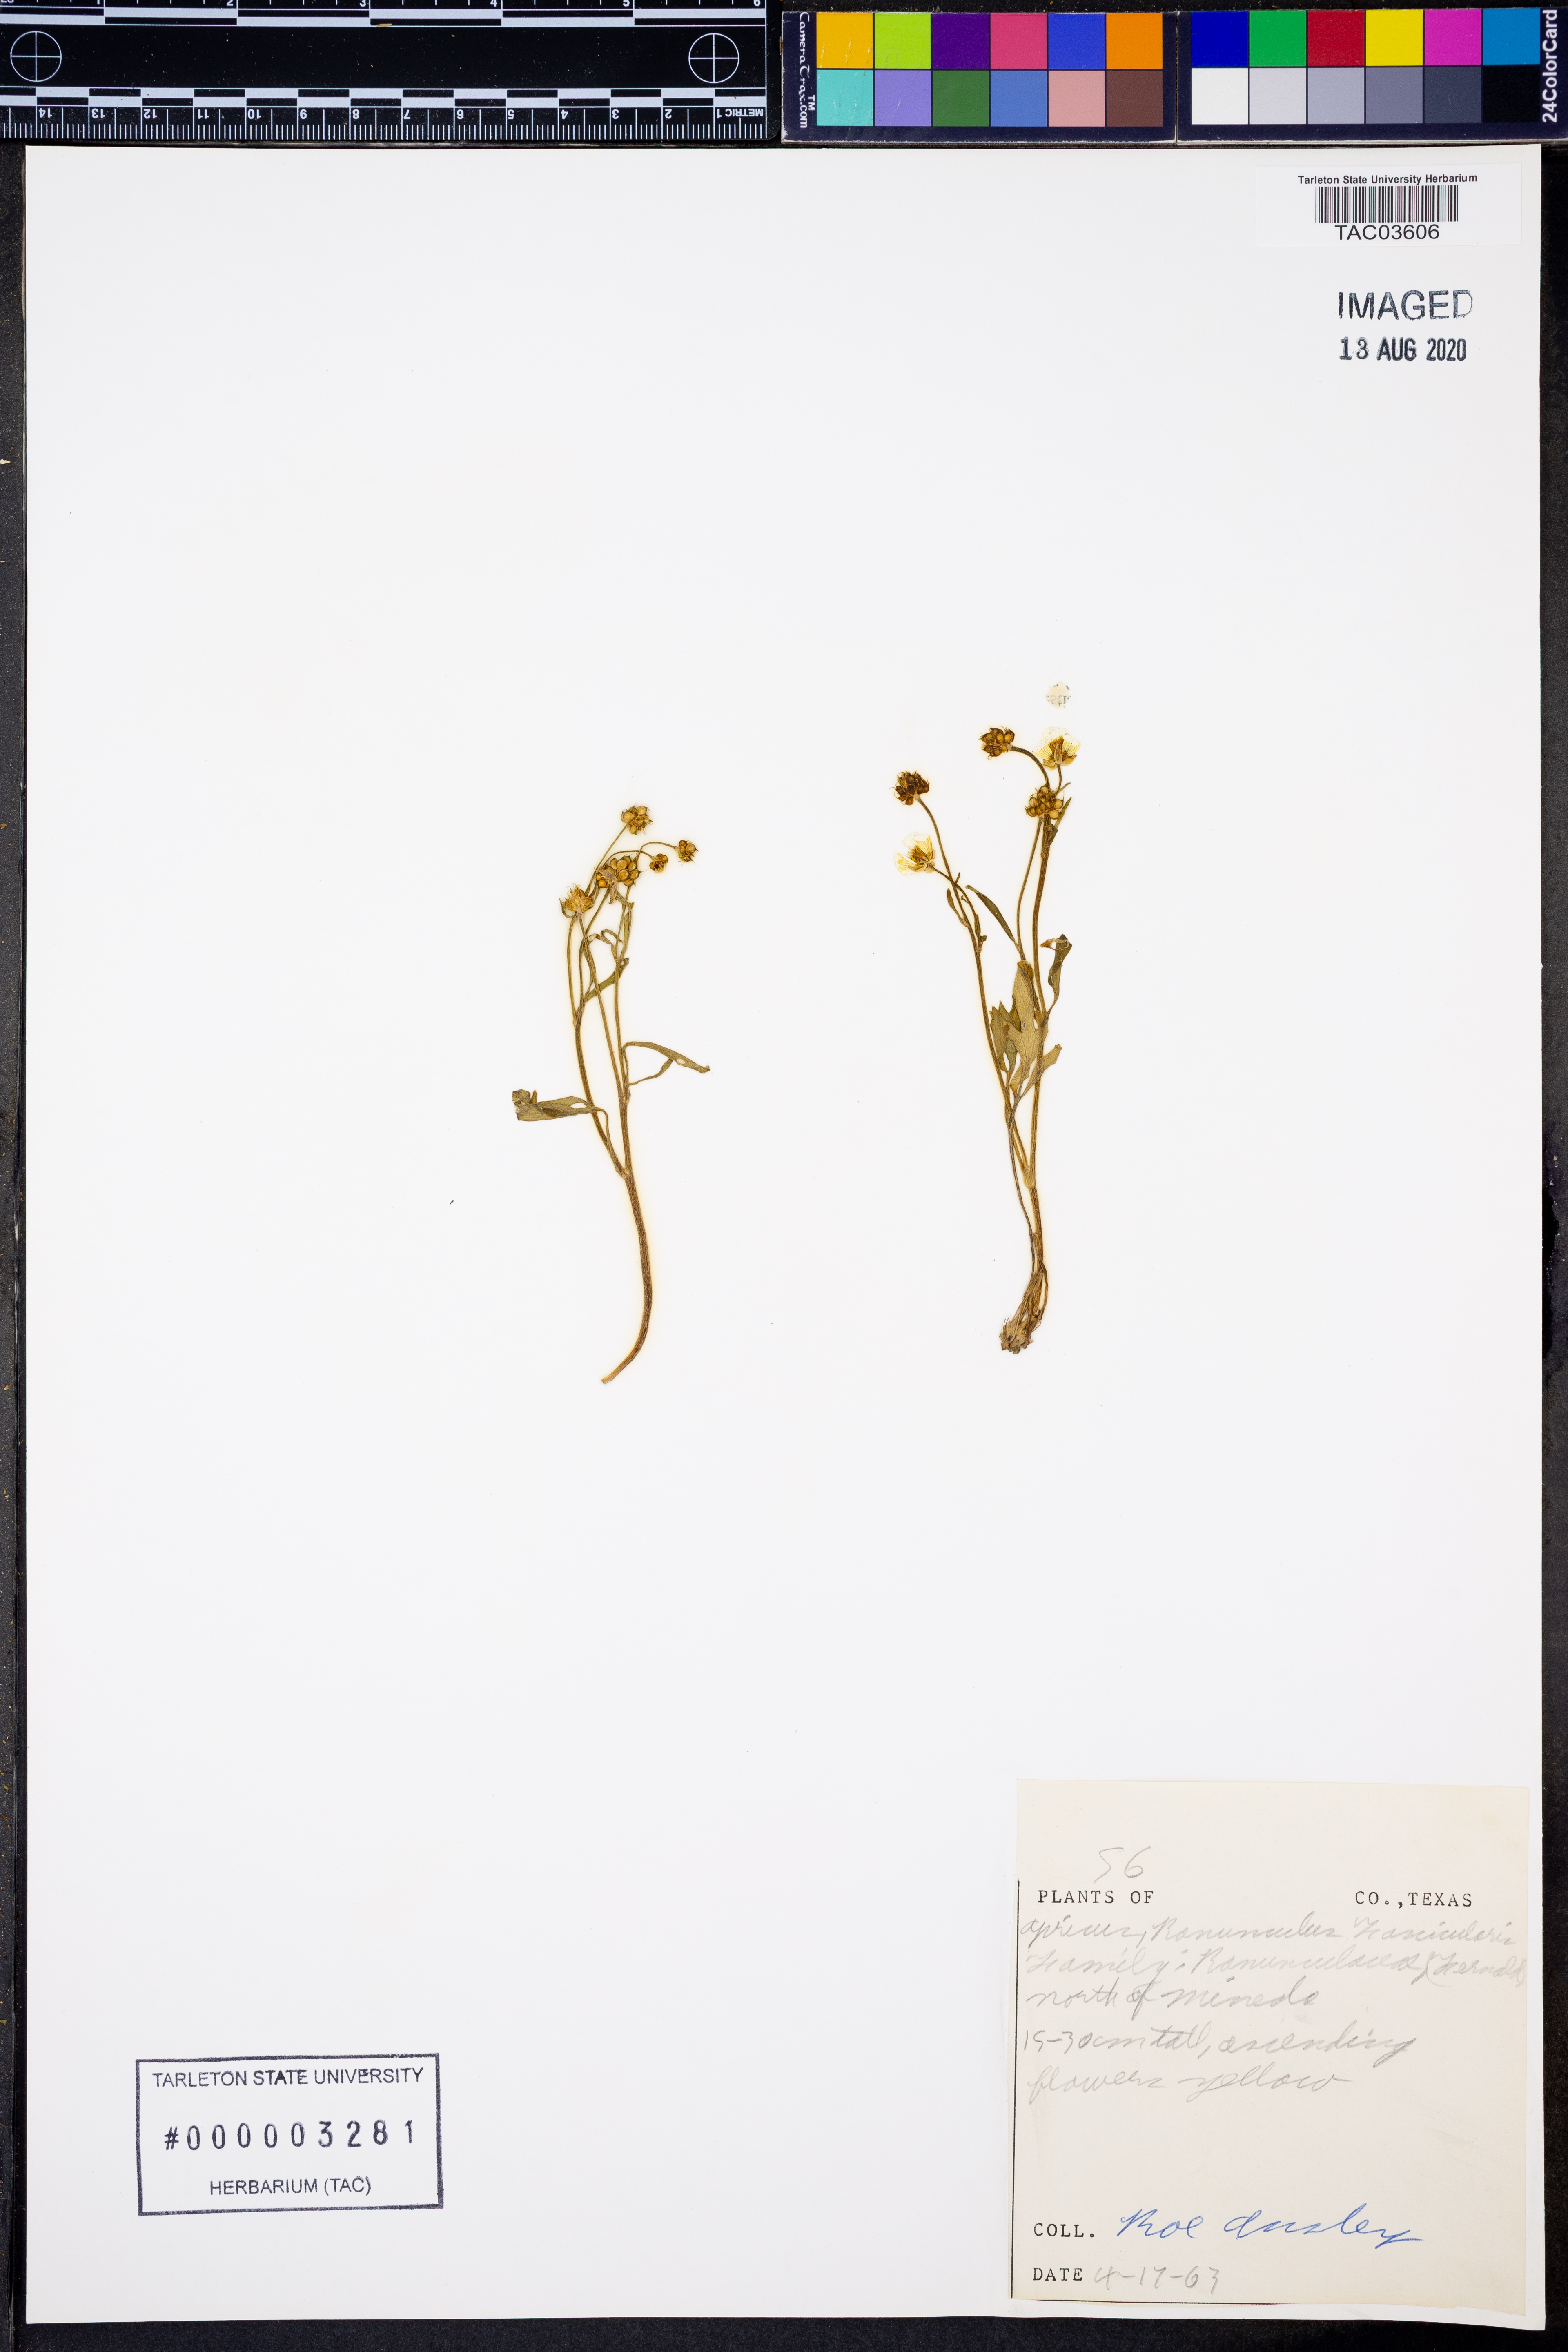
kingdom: Plantae
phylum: Tracheophyta
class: Magnoliopsida
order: Ranunculales
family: Ranunculaceae
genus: Ranunculus
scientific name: Ranunculus fascicularis
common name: Early buttercup
